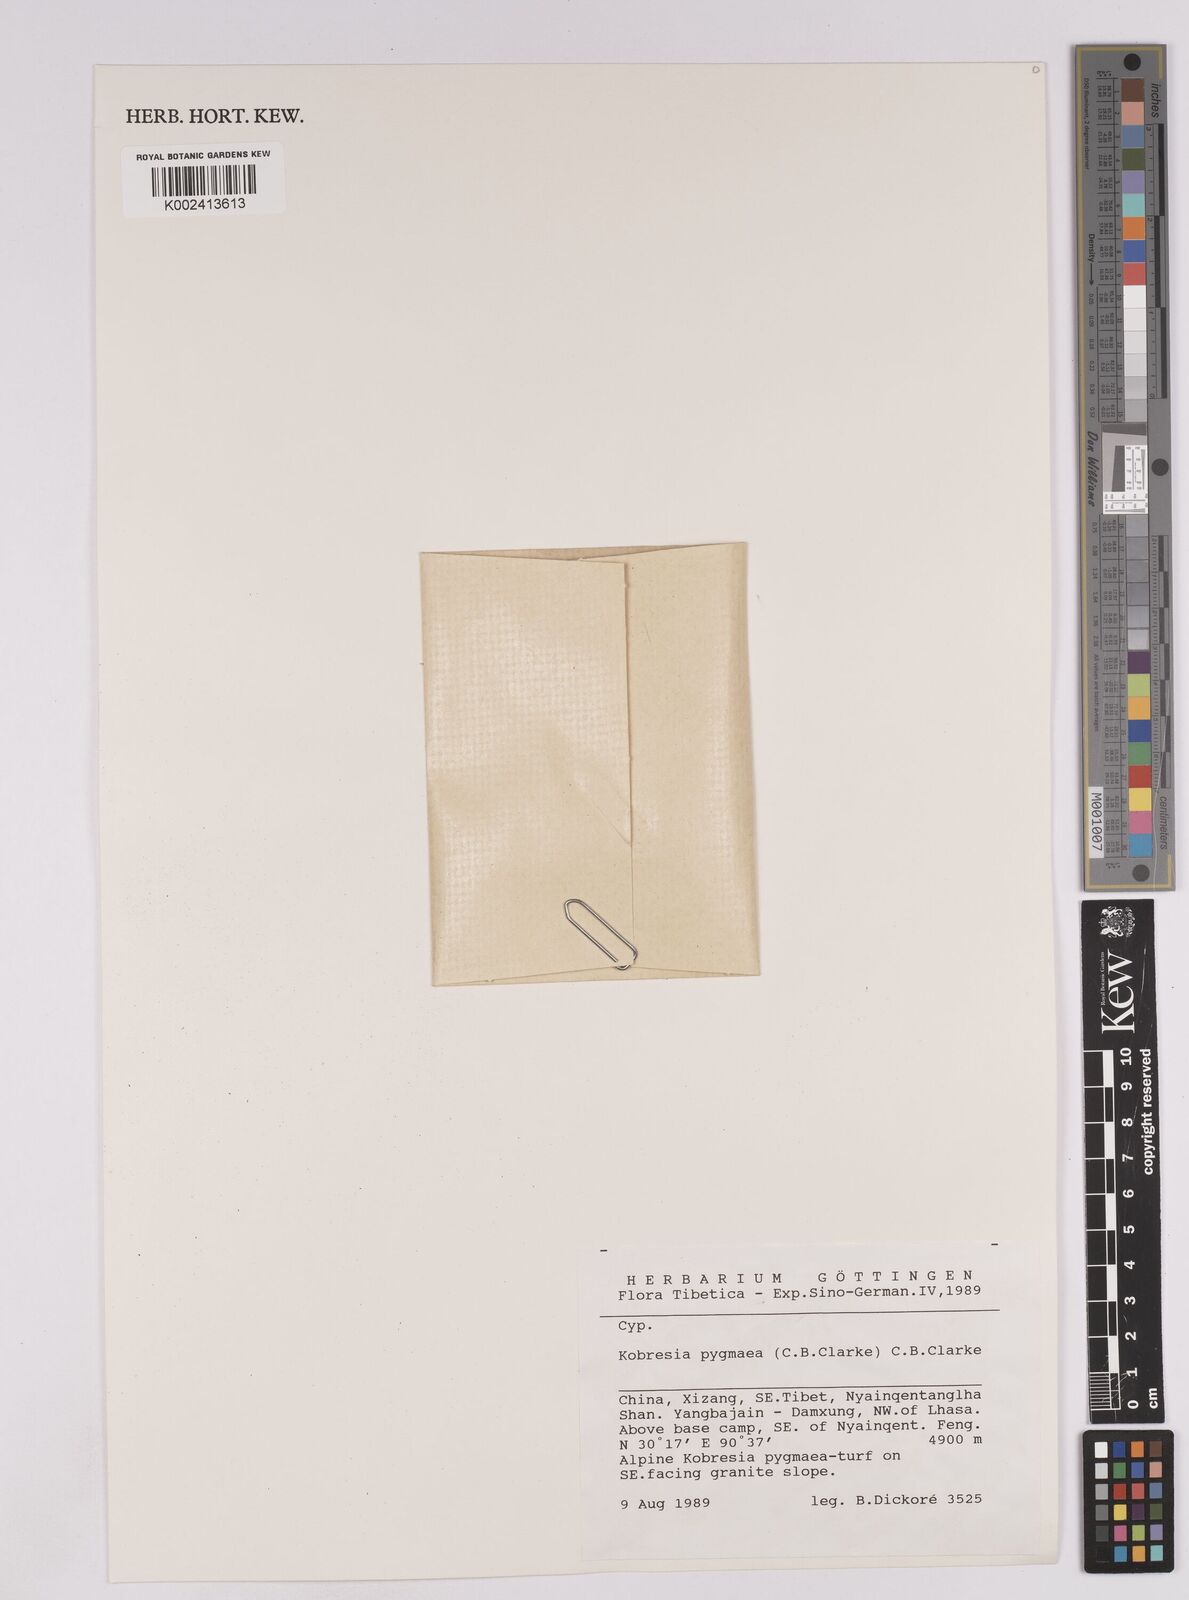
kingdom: Plantae
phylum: Tracheophyta
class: Liliopsida
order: Poales
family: Cyperaceae
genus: Carex
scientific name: Carex parvula
